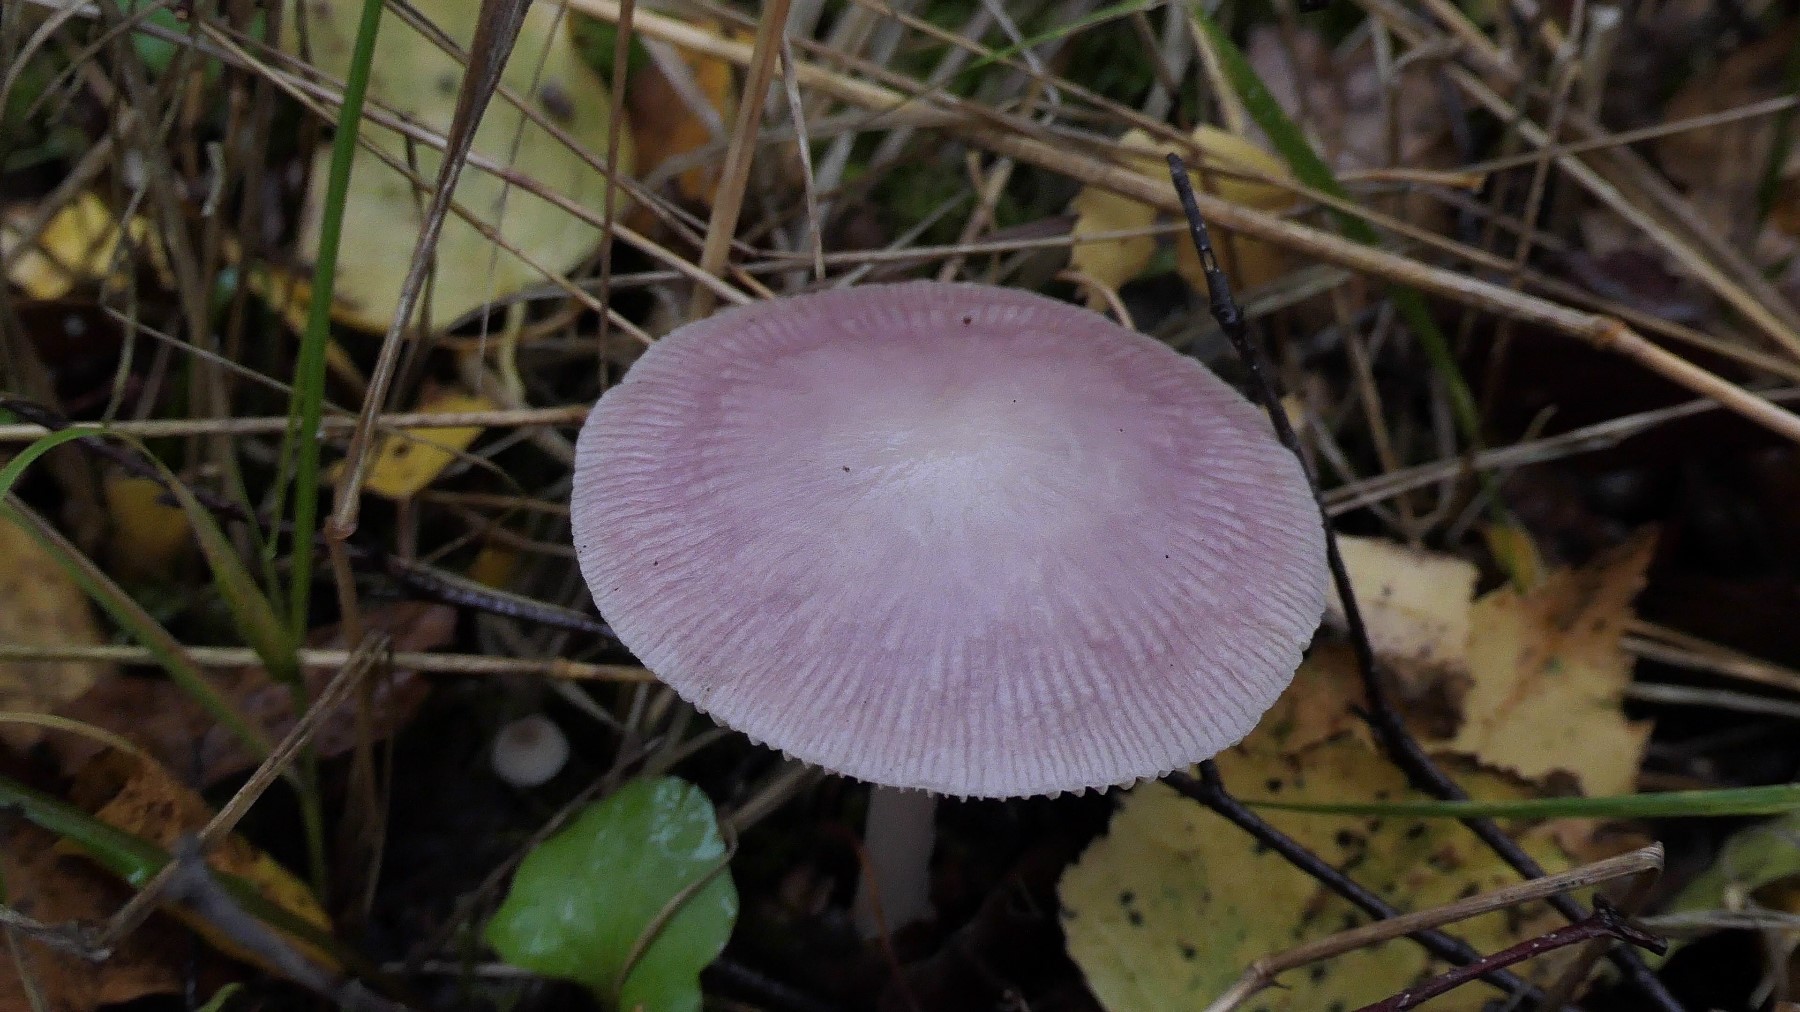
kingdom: Fungi
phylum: Basidiomycota
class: Agaricomycetes
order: Agaricales
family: Mycenaceae
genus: Mycena
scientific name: Mycena rosea
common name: rosa huesvamp
